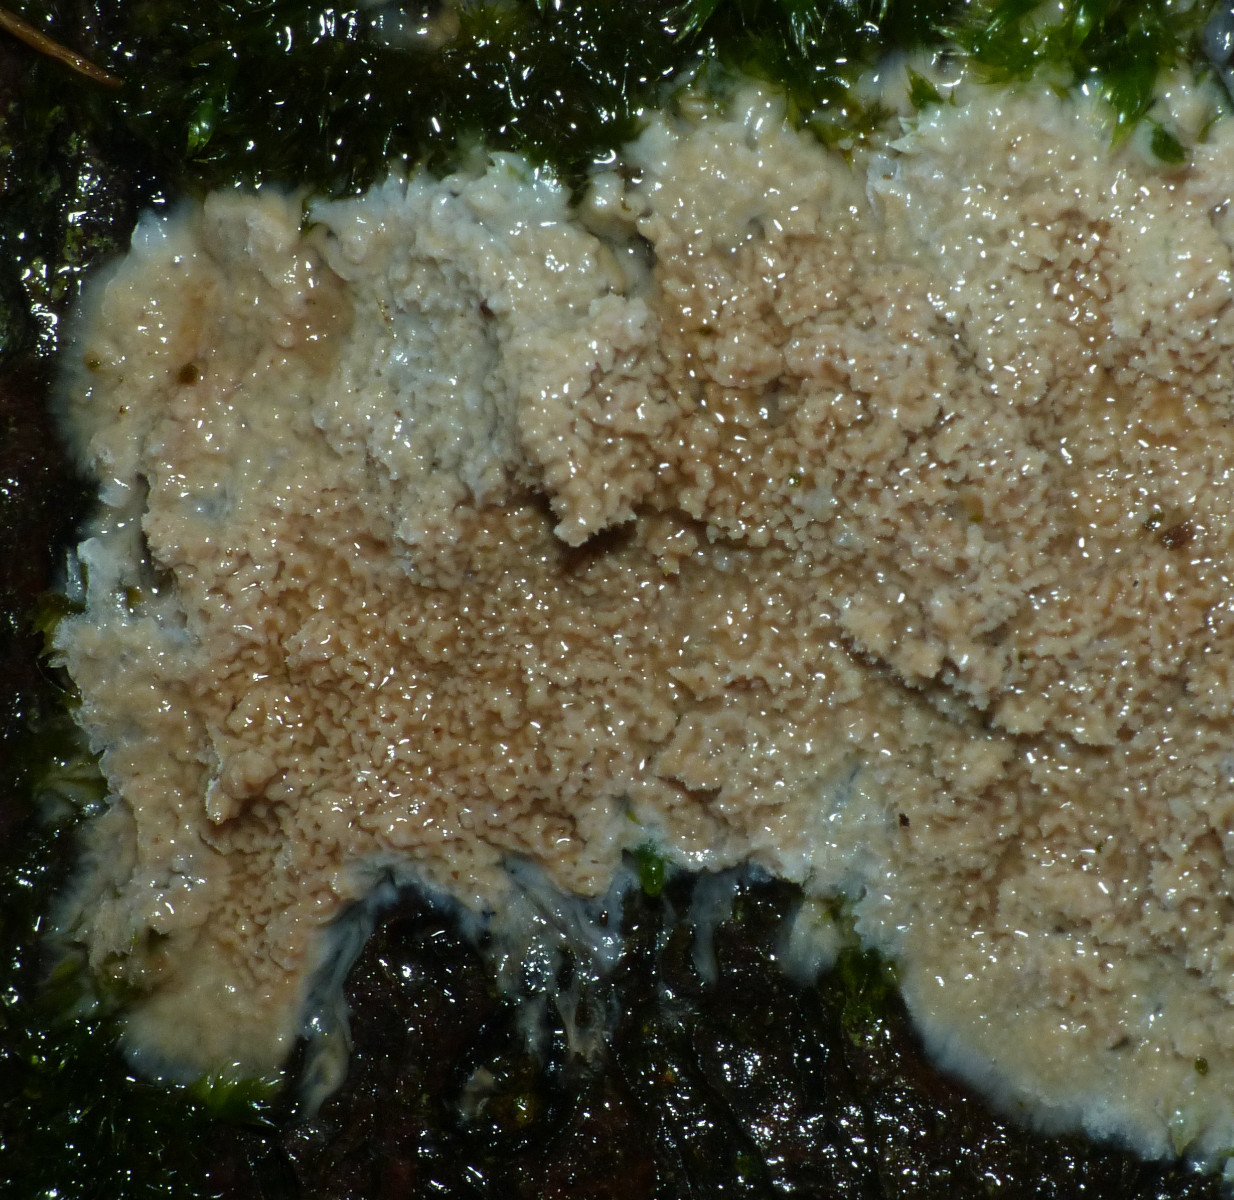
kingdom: Fungi
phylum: Basidiomycota
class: Agaricomycetes
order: Polyporales
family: Meruliaceae
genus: Mycoacia
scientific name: Mycoacia gilvescens
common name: rosa pastelporesvamp
